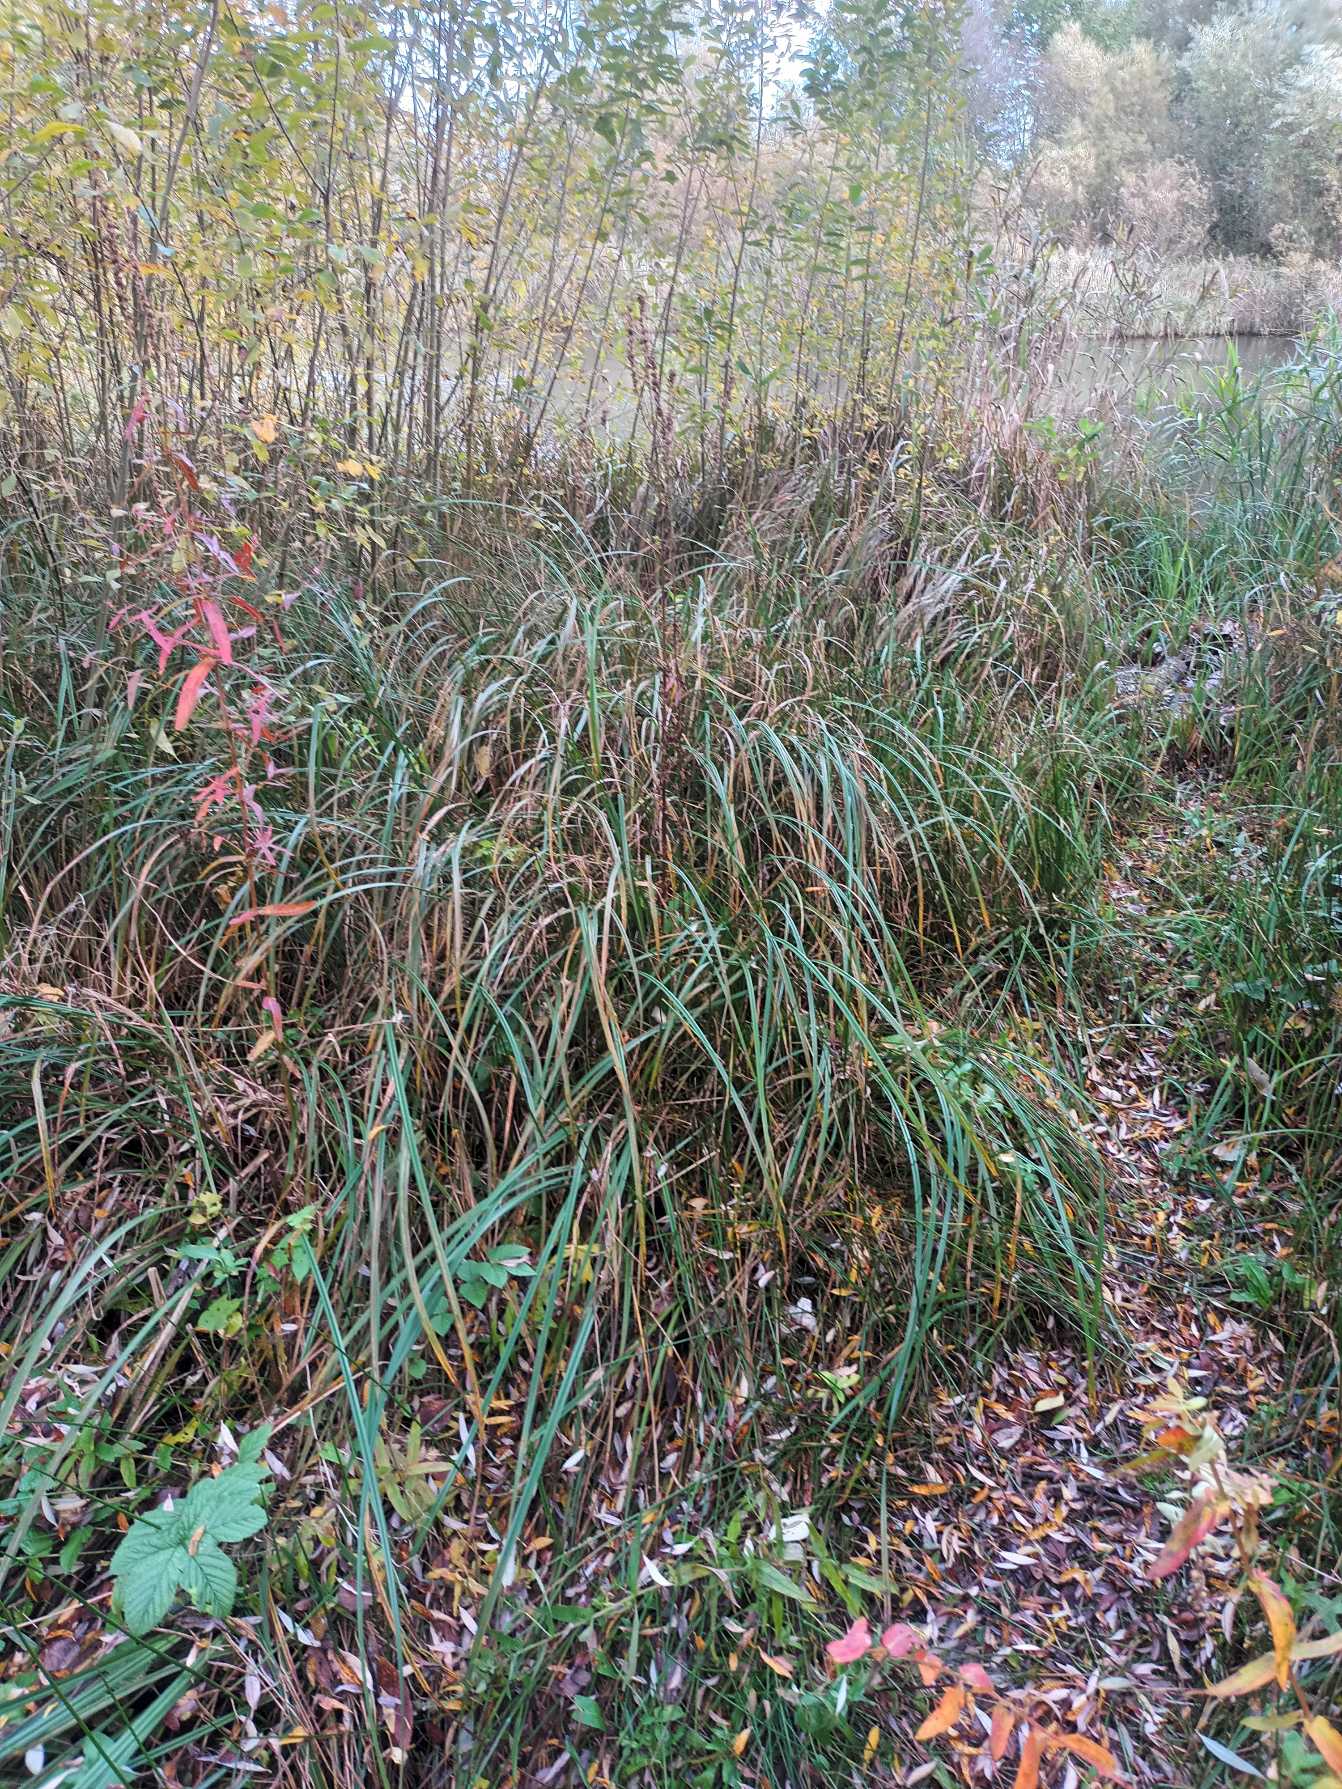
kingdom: Plantae
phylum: Tracheophyta
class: Liliopsida
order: Poales
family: Cyperaceae
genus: Carex
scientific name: Carex acutiformis
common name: Kær-star
